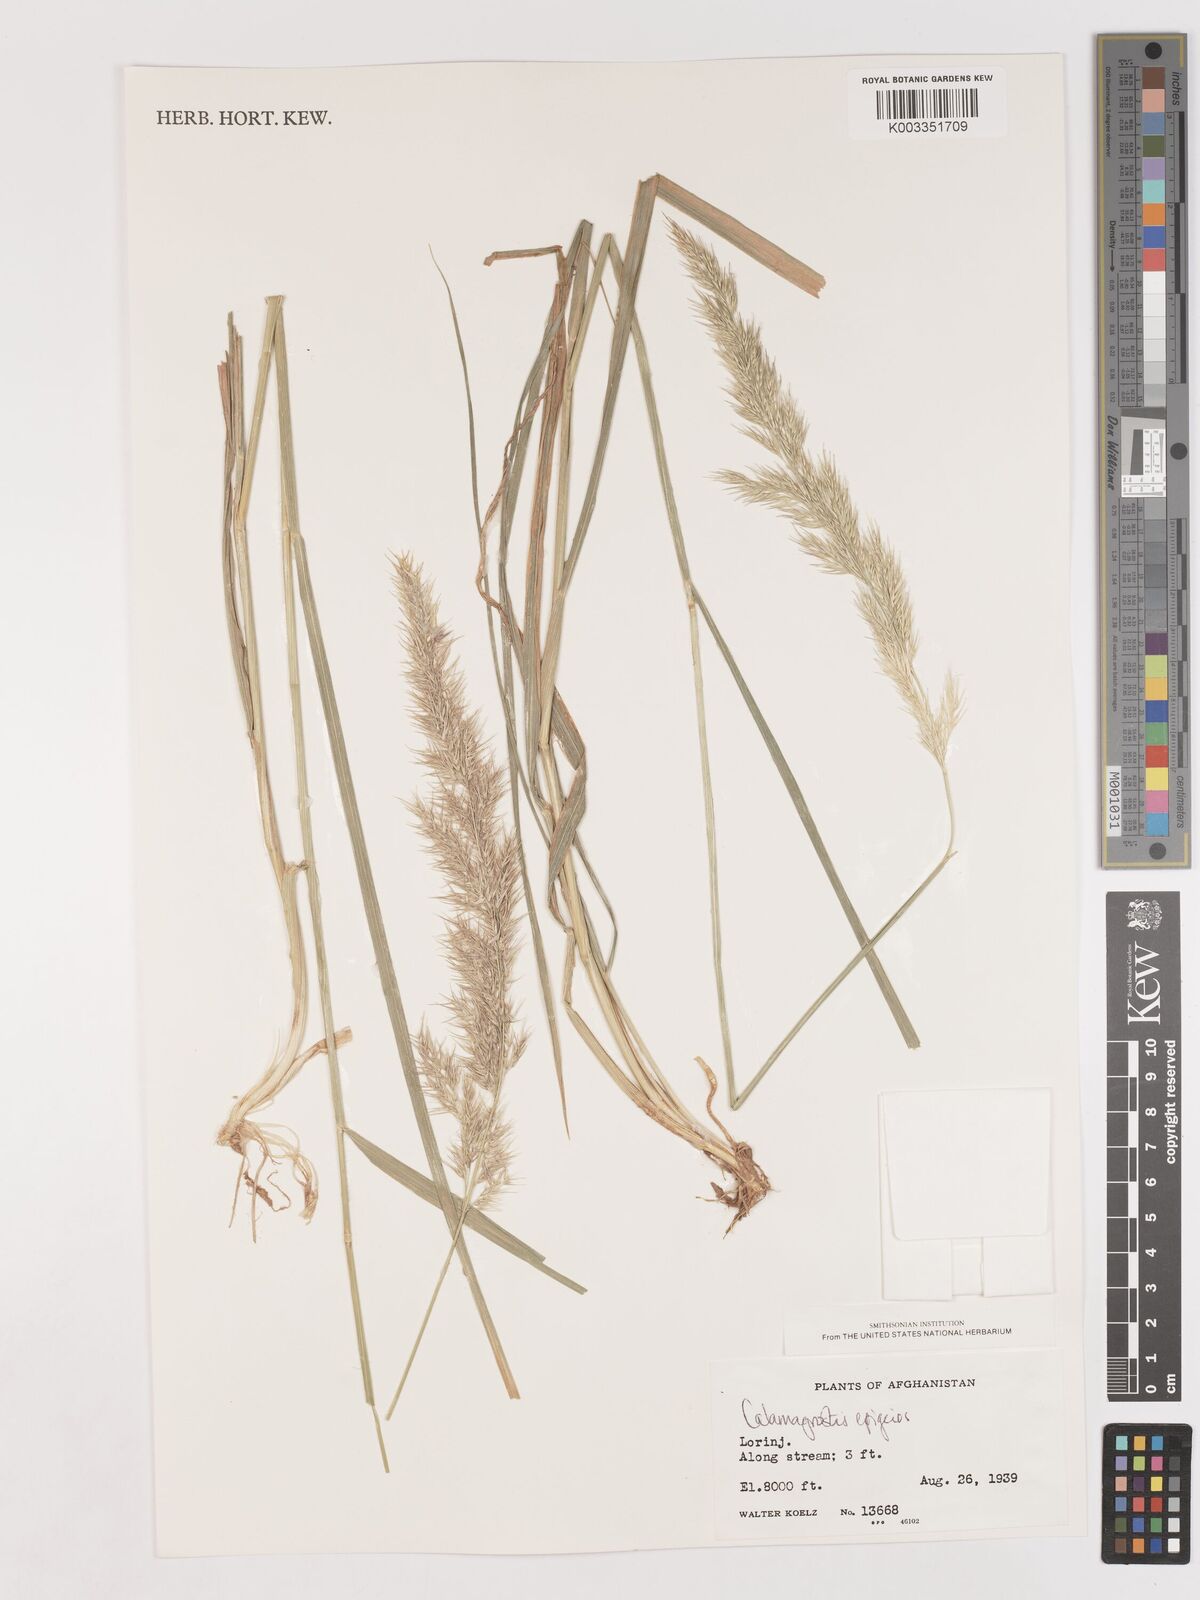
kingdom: Plantae
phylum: Tracheophyta
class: Liliopsida
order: Poales
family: Poaceae
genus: Calamagrostis
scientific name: Calamagrostis epigejos
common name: Wood small-reed
